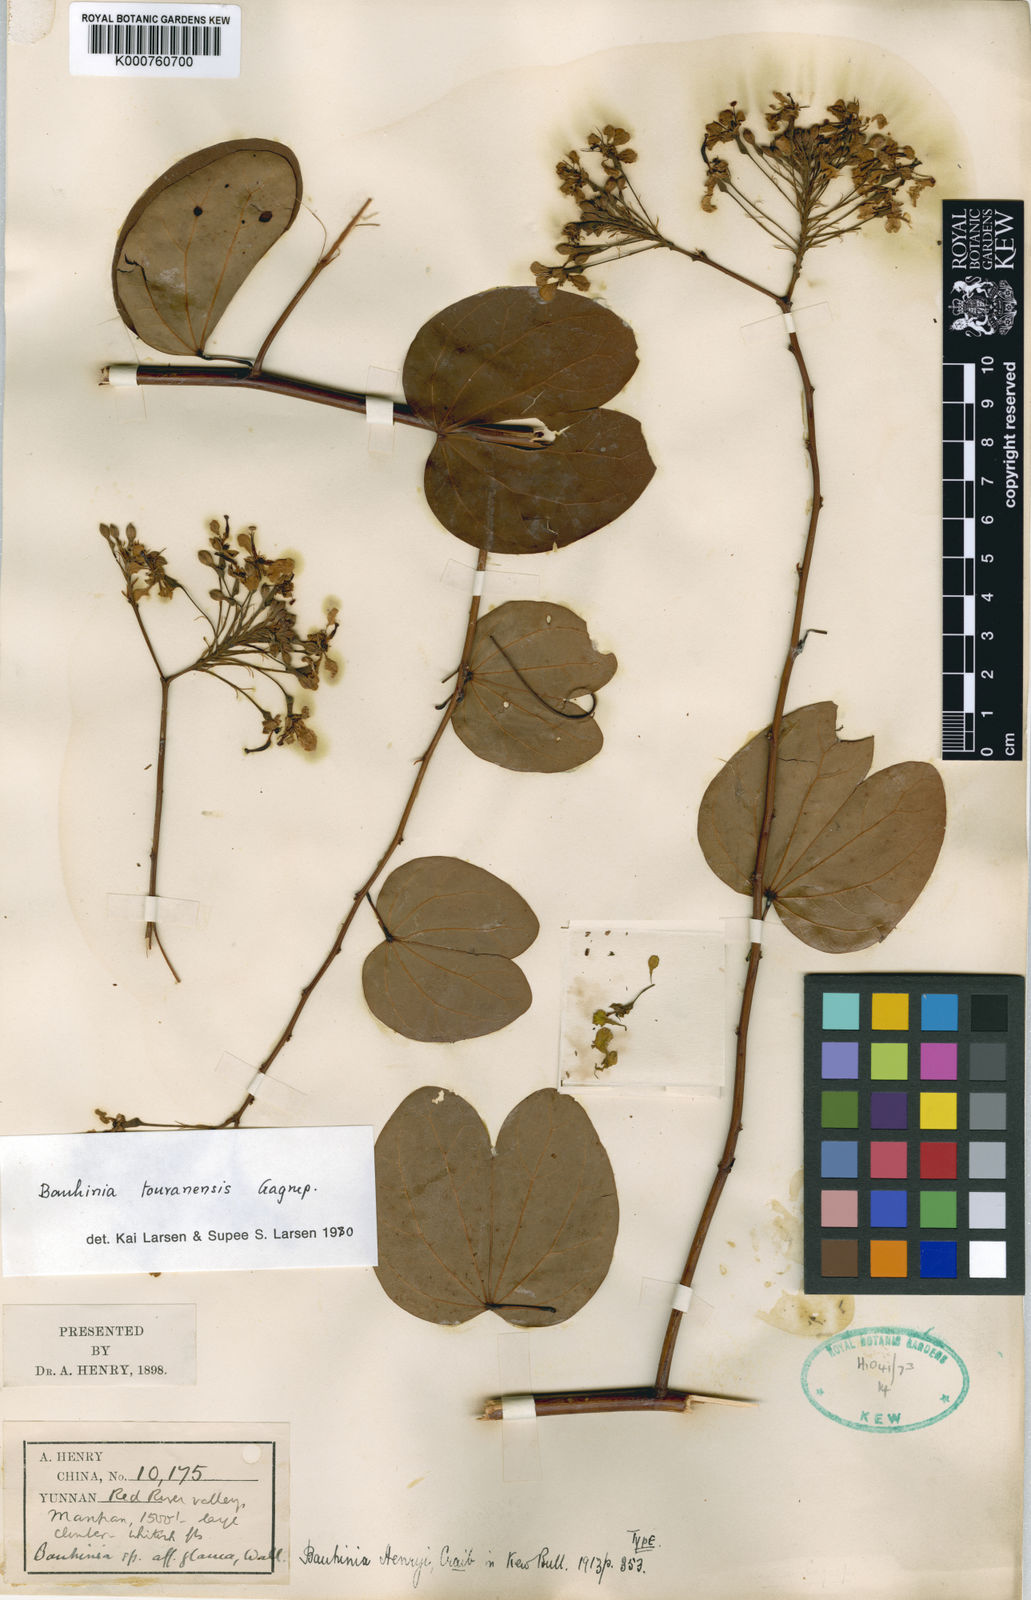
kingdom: Plantae
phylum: Tracheophyta
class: Magnoliopsida
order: Fabales
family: Fabaceae
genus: Cheniella
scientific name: Cheniella touranensis
